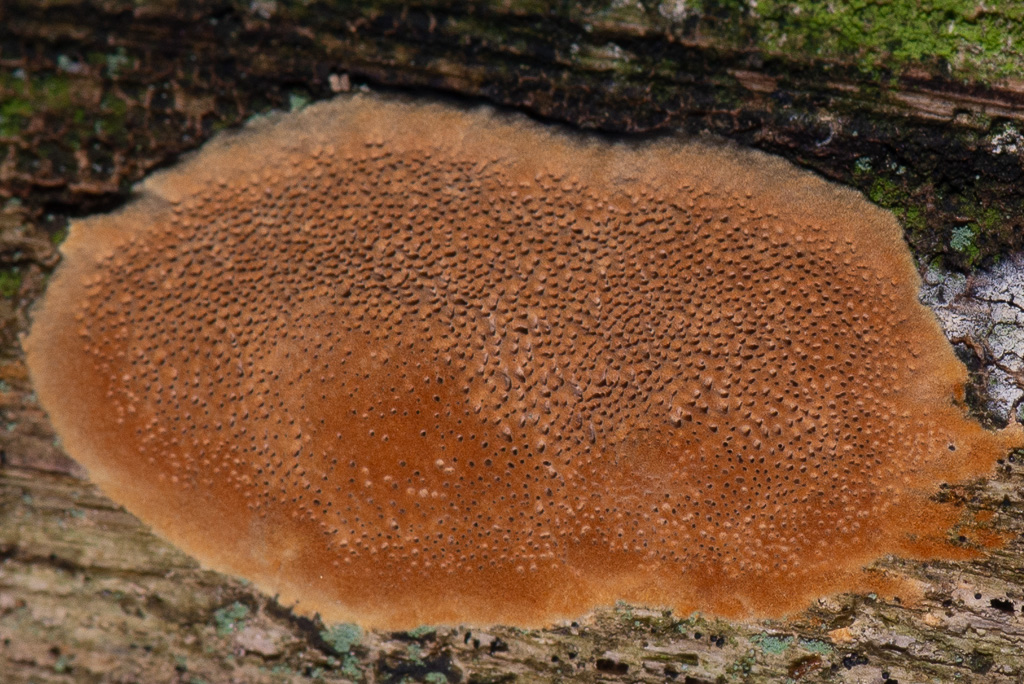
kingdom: Fungi
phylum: Basidiomycota
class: Agaricomycetes
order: Hymenochaetales
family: Hymenochaetaceae
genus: Fuscoporia
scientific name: Fuscoporia ferrea
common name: skorpe-ildporesvamp
